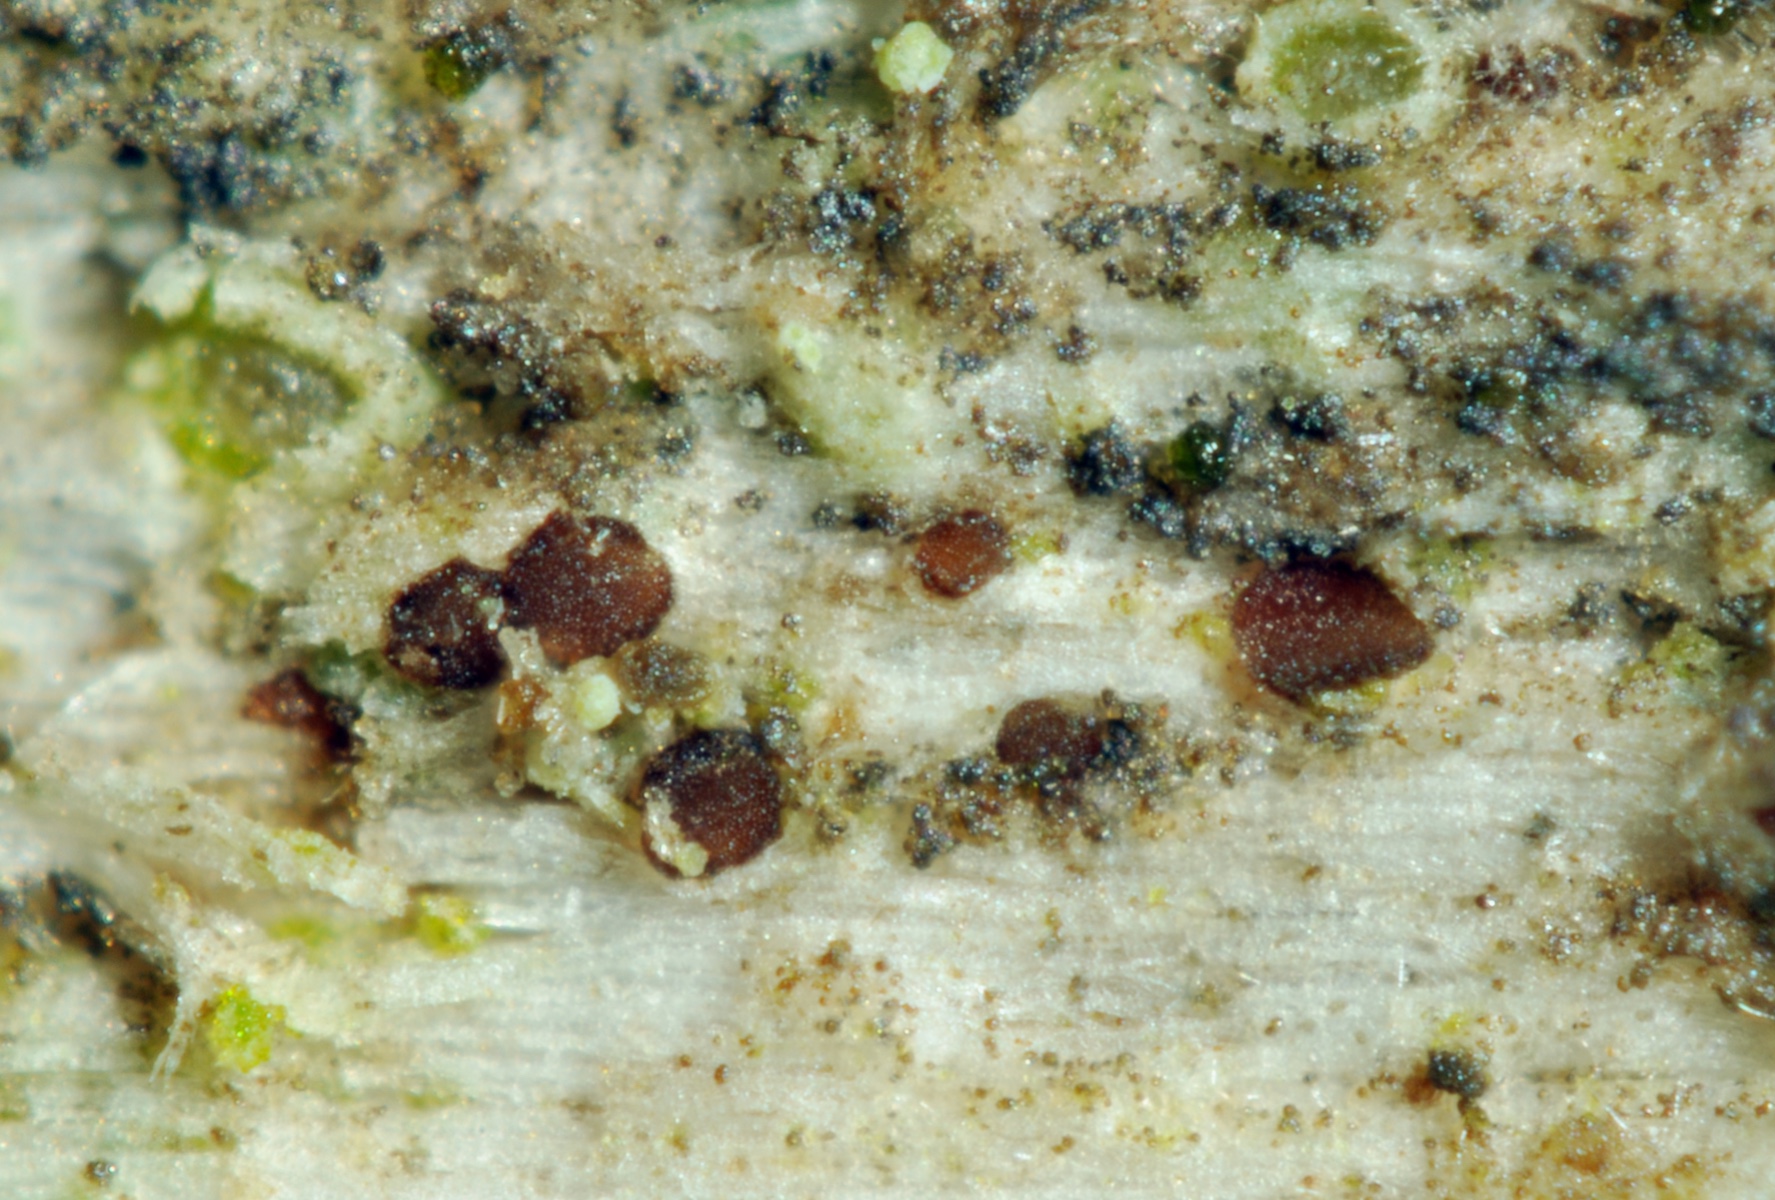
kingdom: Fungi
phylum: Ascomycota
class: Leotiomycetes
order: Helotiales
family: Cordieritidaceae
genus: Unguiculariopsis
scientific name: Unguiculariopsis thallophila
